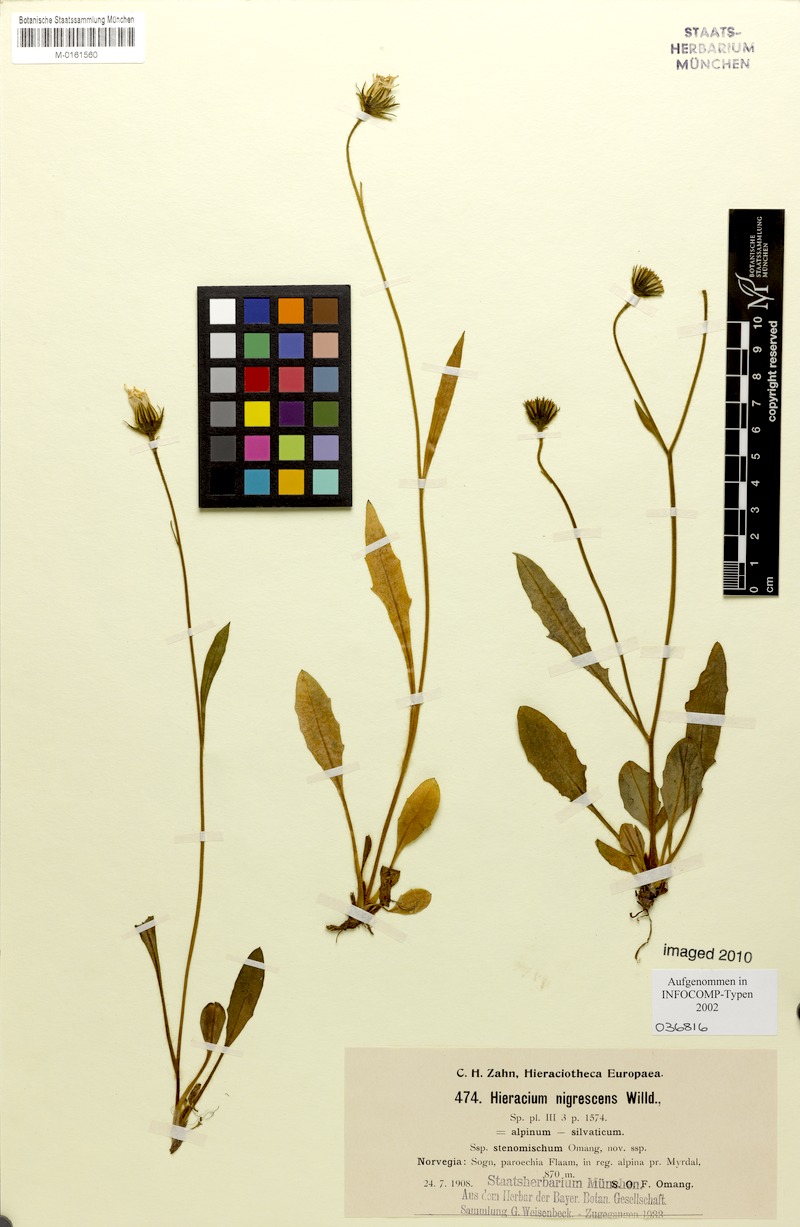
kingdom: Plantae
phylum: Tracheophyta
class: Magnoliopsida
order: Asterales
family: Asteraceae
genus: Hieracium
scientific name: Hieracium nigrescens
